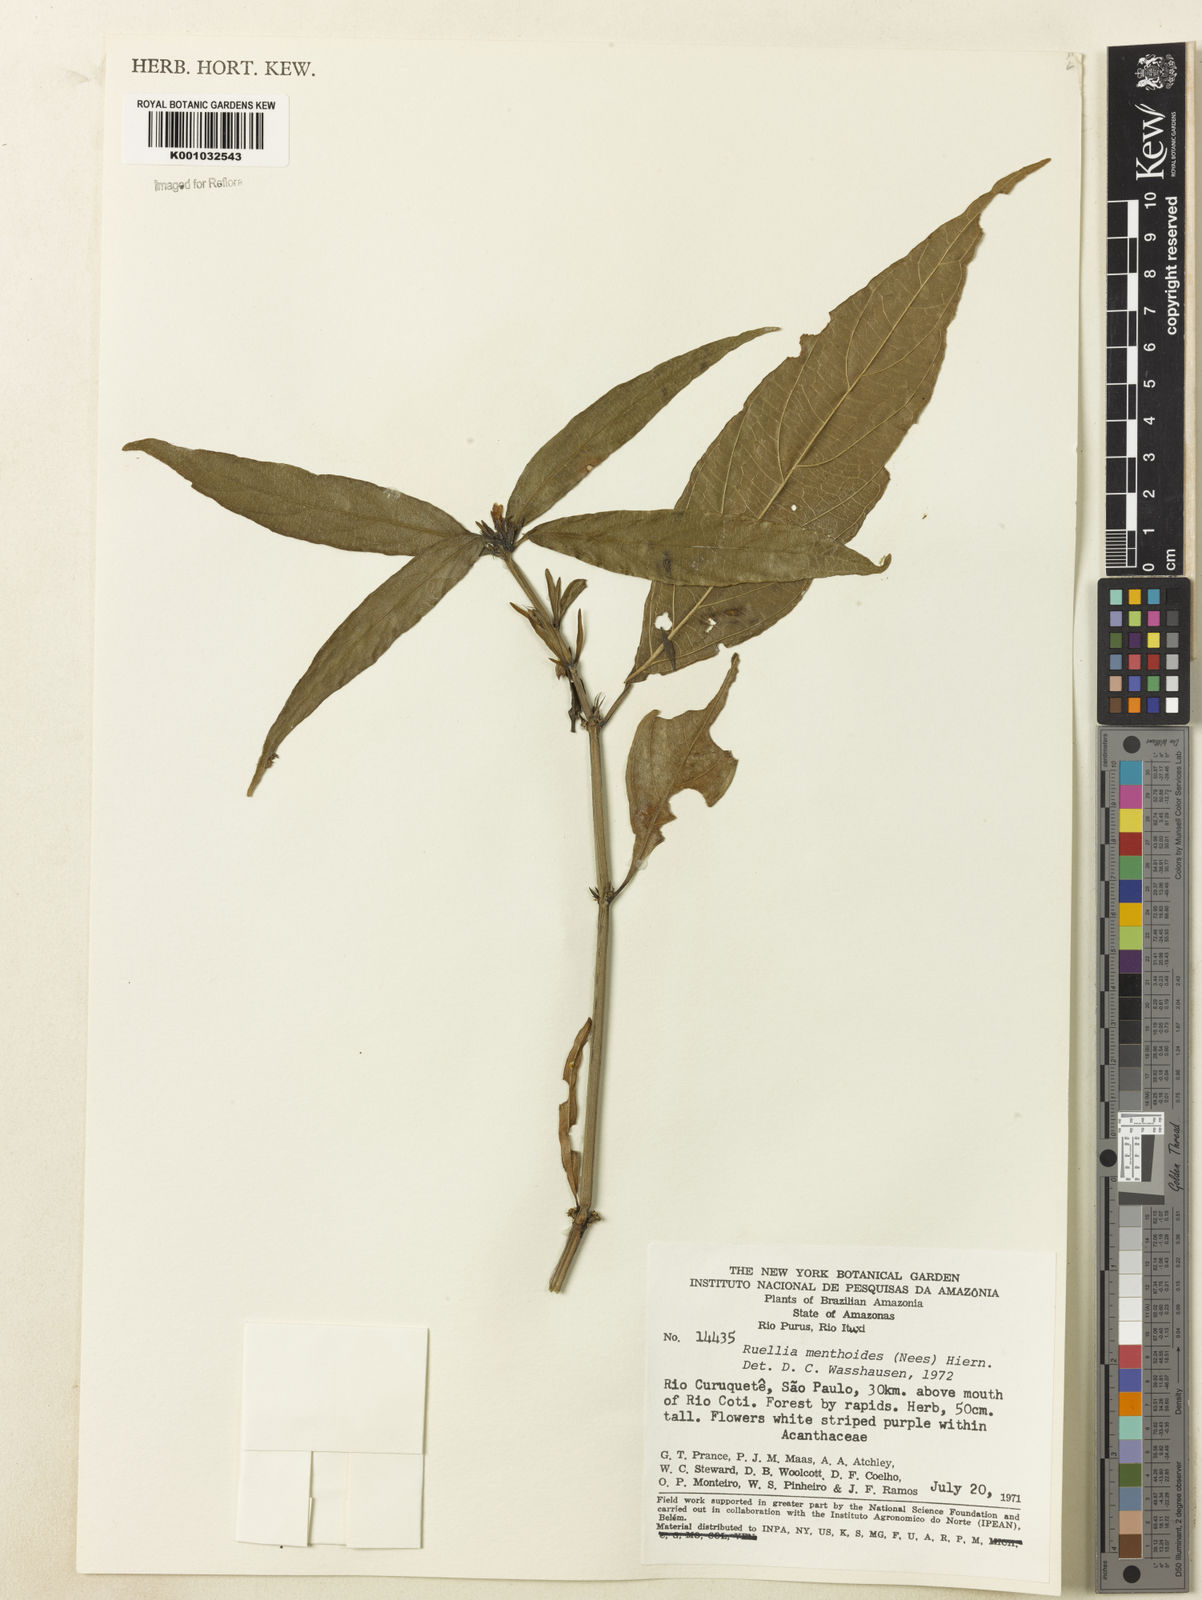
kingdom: Plantae
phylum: Tracheophyta
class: Magnoliopsida
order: Lamiales
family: Acanthaceae
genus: Ruellia
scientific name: Ruellia menthoides
